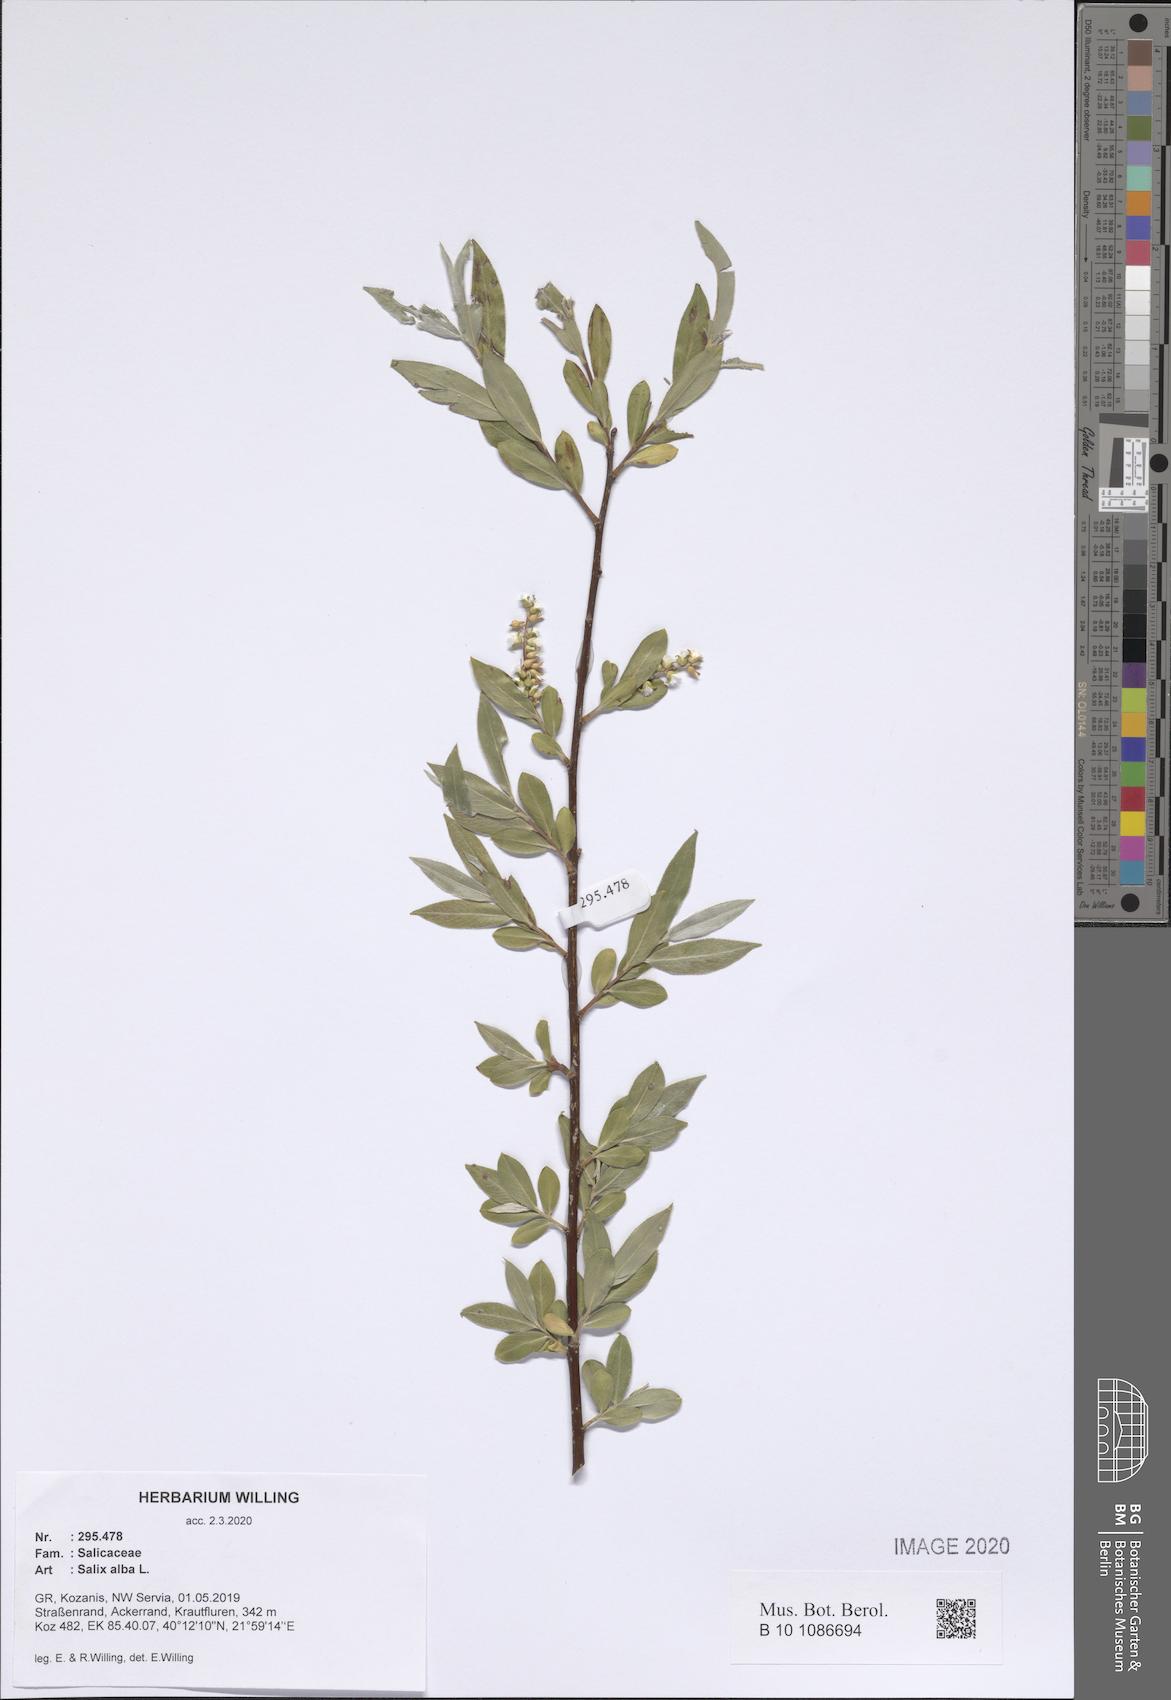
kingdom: Plantae
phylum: Tracheophyta
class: Magnoliopsida
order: Malpighiales
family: Salicaceae
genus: Salix
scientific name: Salix alba
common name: White willow
